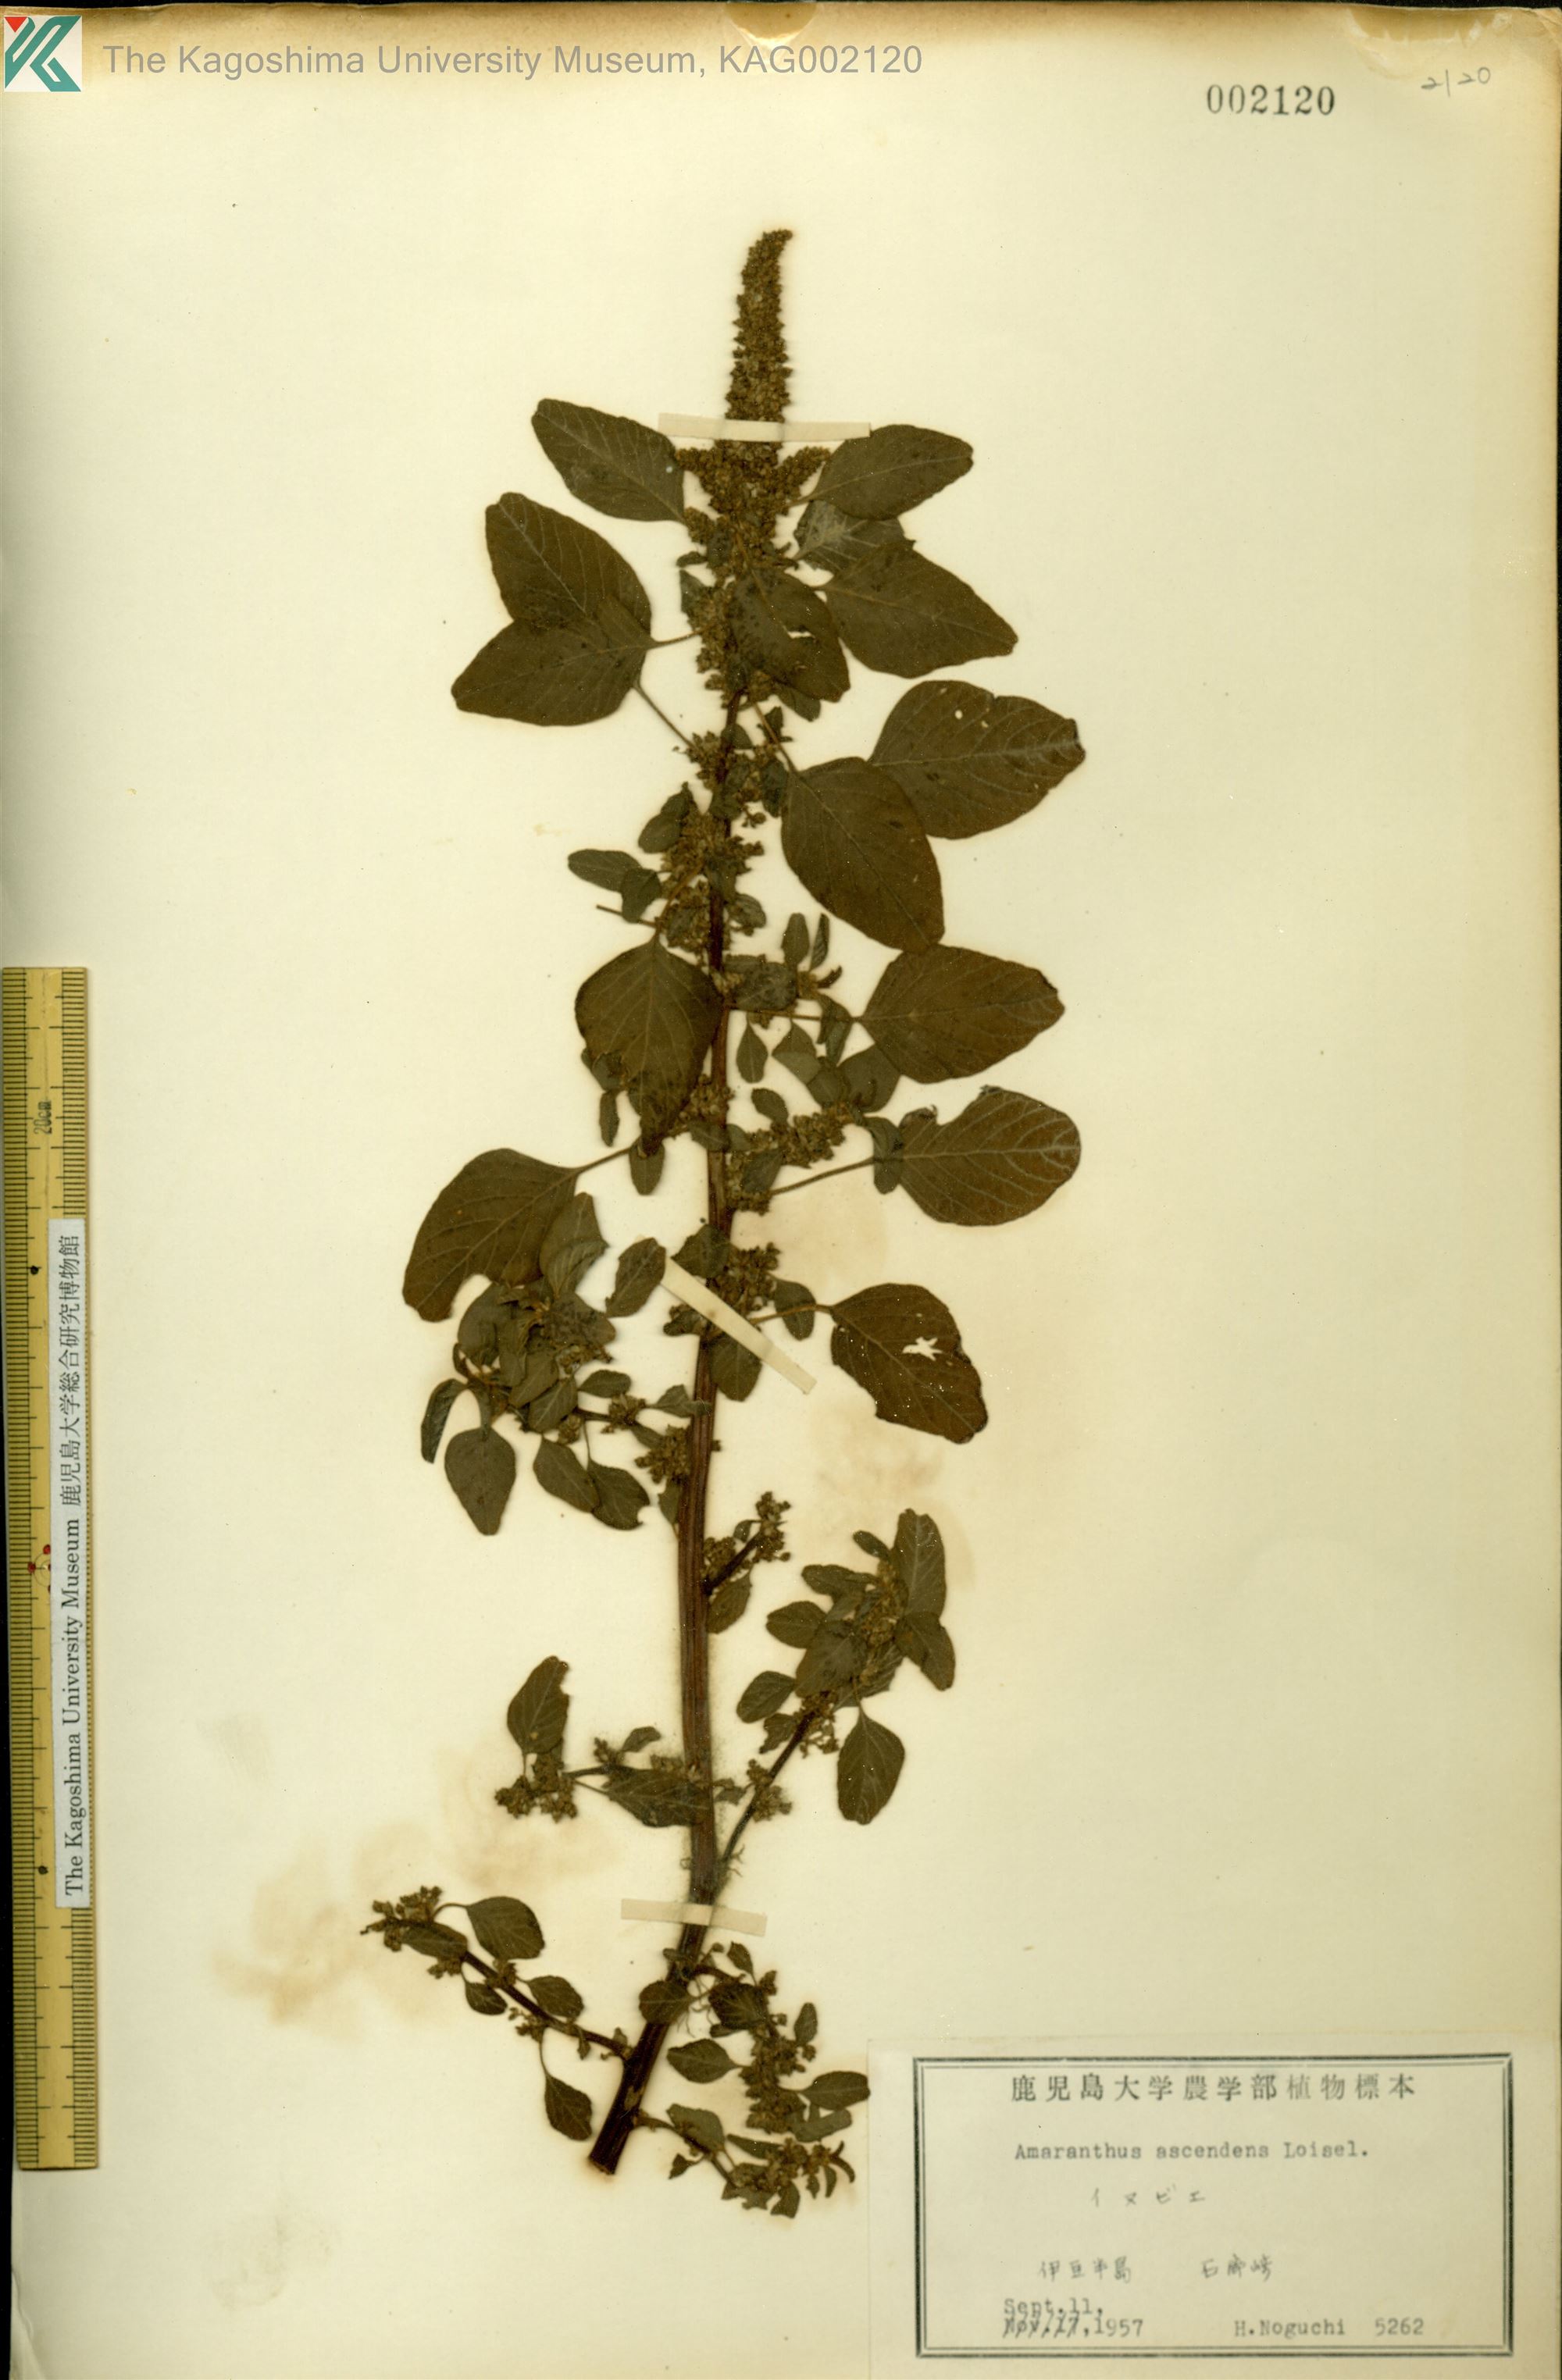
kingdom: Plantae
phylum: Tracheophyta
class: Magnoliopsida
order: Caryophyllales
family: Amaranthaceae
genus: Amaranthus
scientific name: Amaranthus blitum
